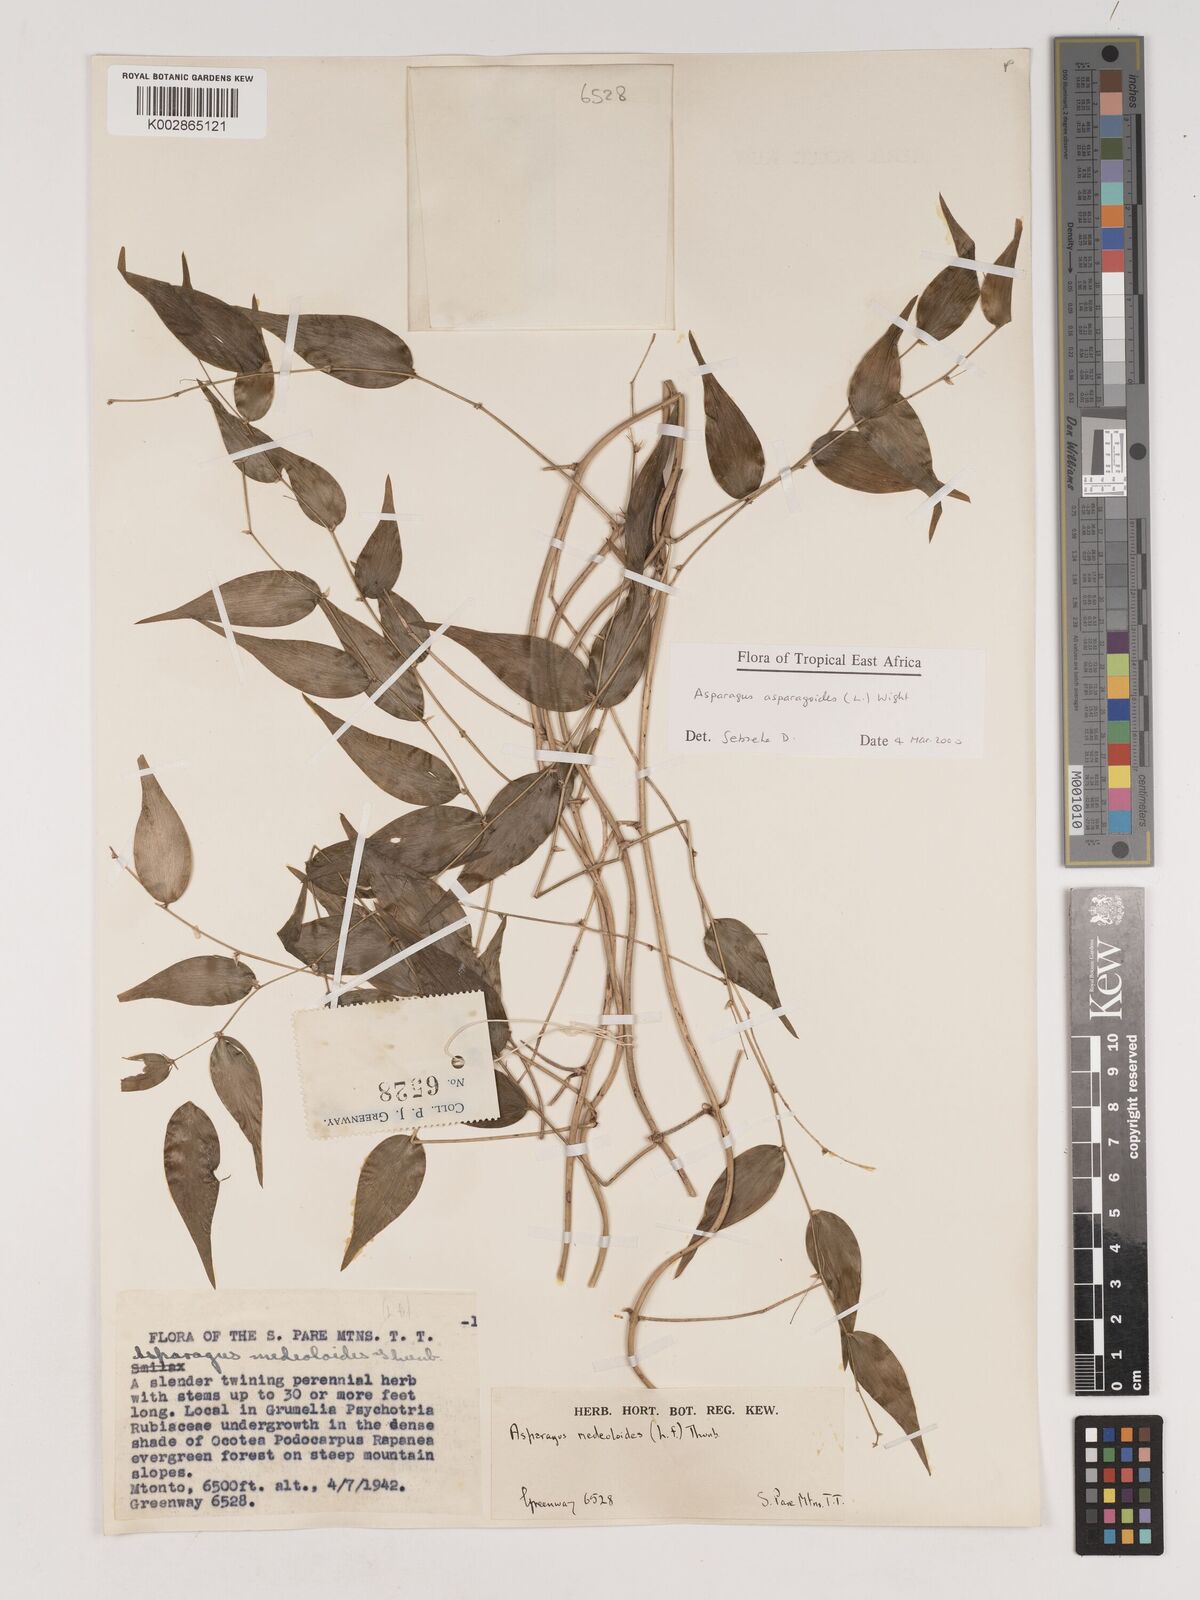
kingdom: Plantae
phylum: Tracheophyta
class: Liliopsida
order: Asparagales
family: Asparagaceae
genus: Asparagus
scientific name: Asparagus asparagoides
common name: African asparagus fern
